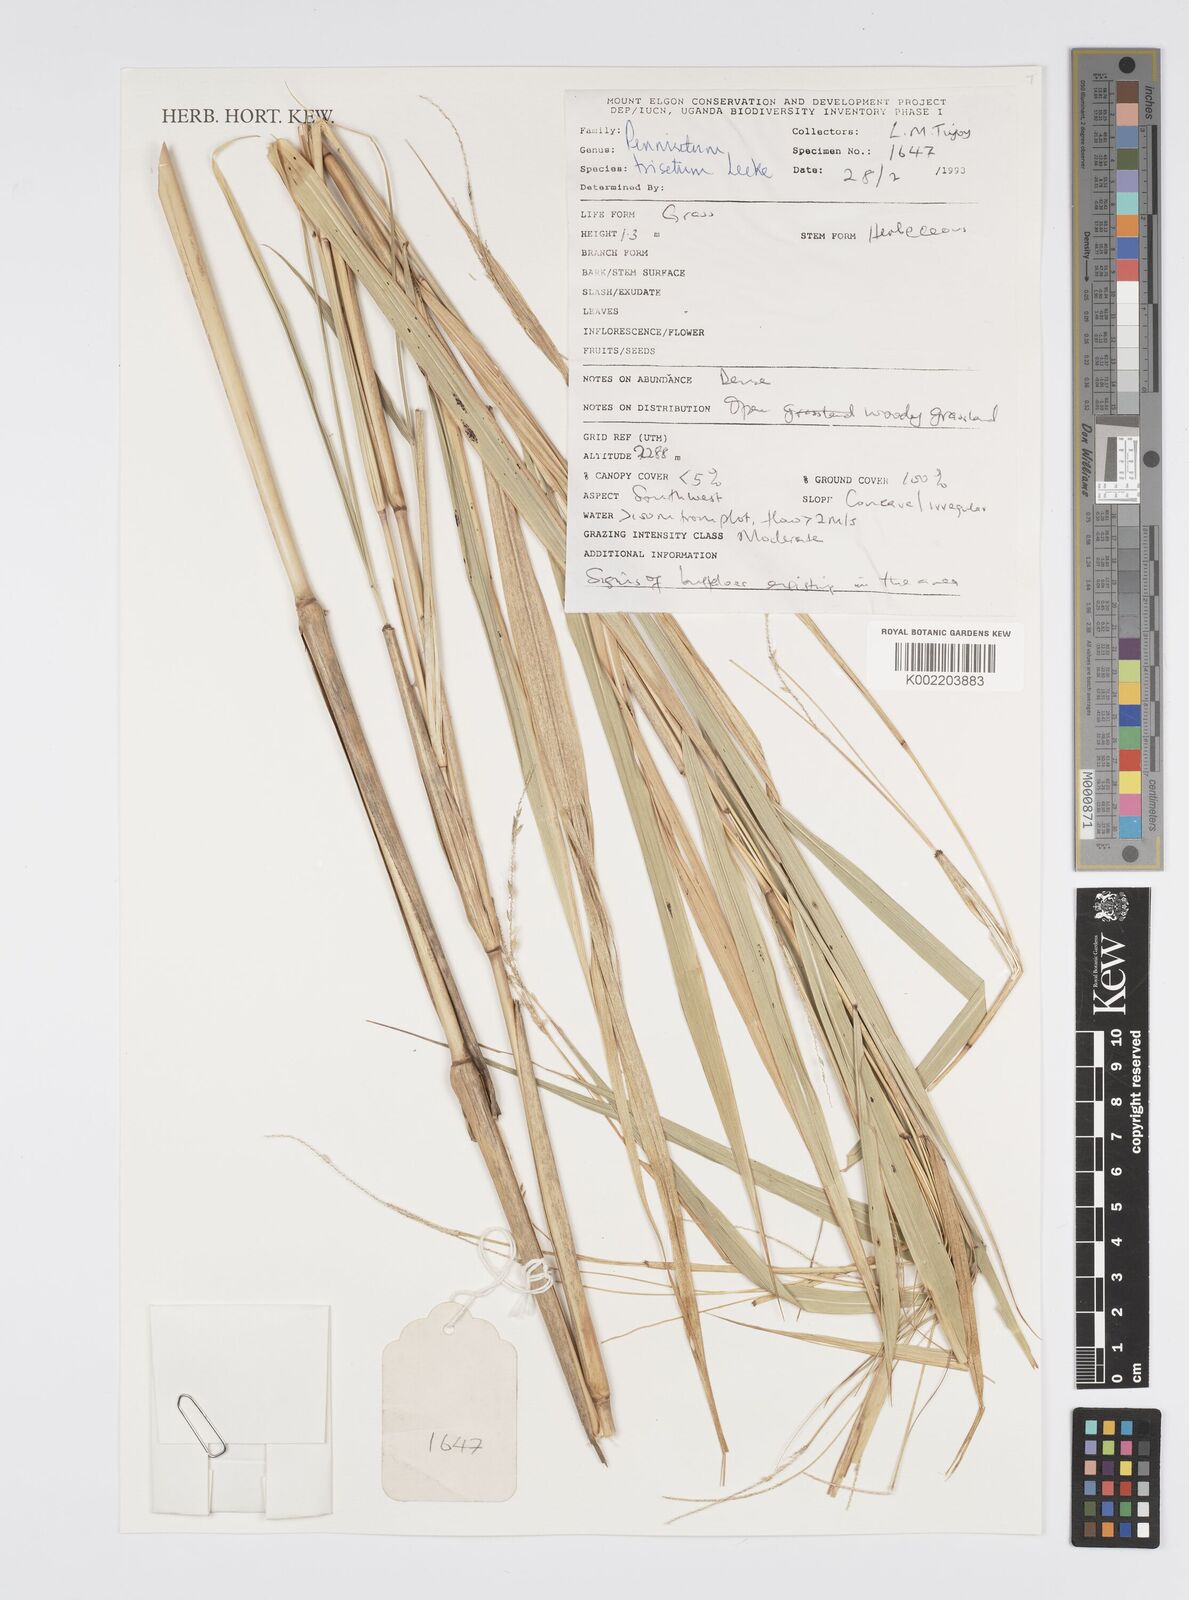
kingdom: Plantae
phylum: Tracheophyta
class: Liliopsida
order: Poales
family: Poaceae
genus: Cenchrus
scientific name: Cenchrus trisetus
